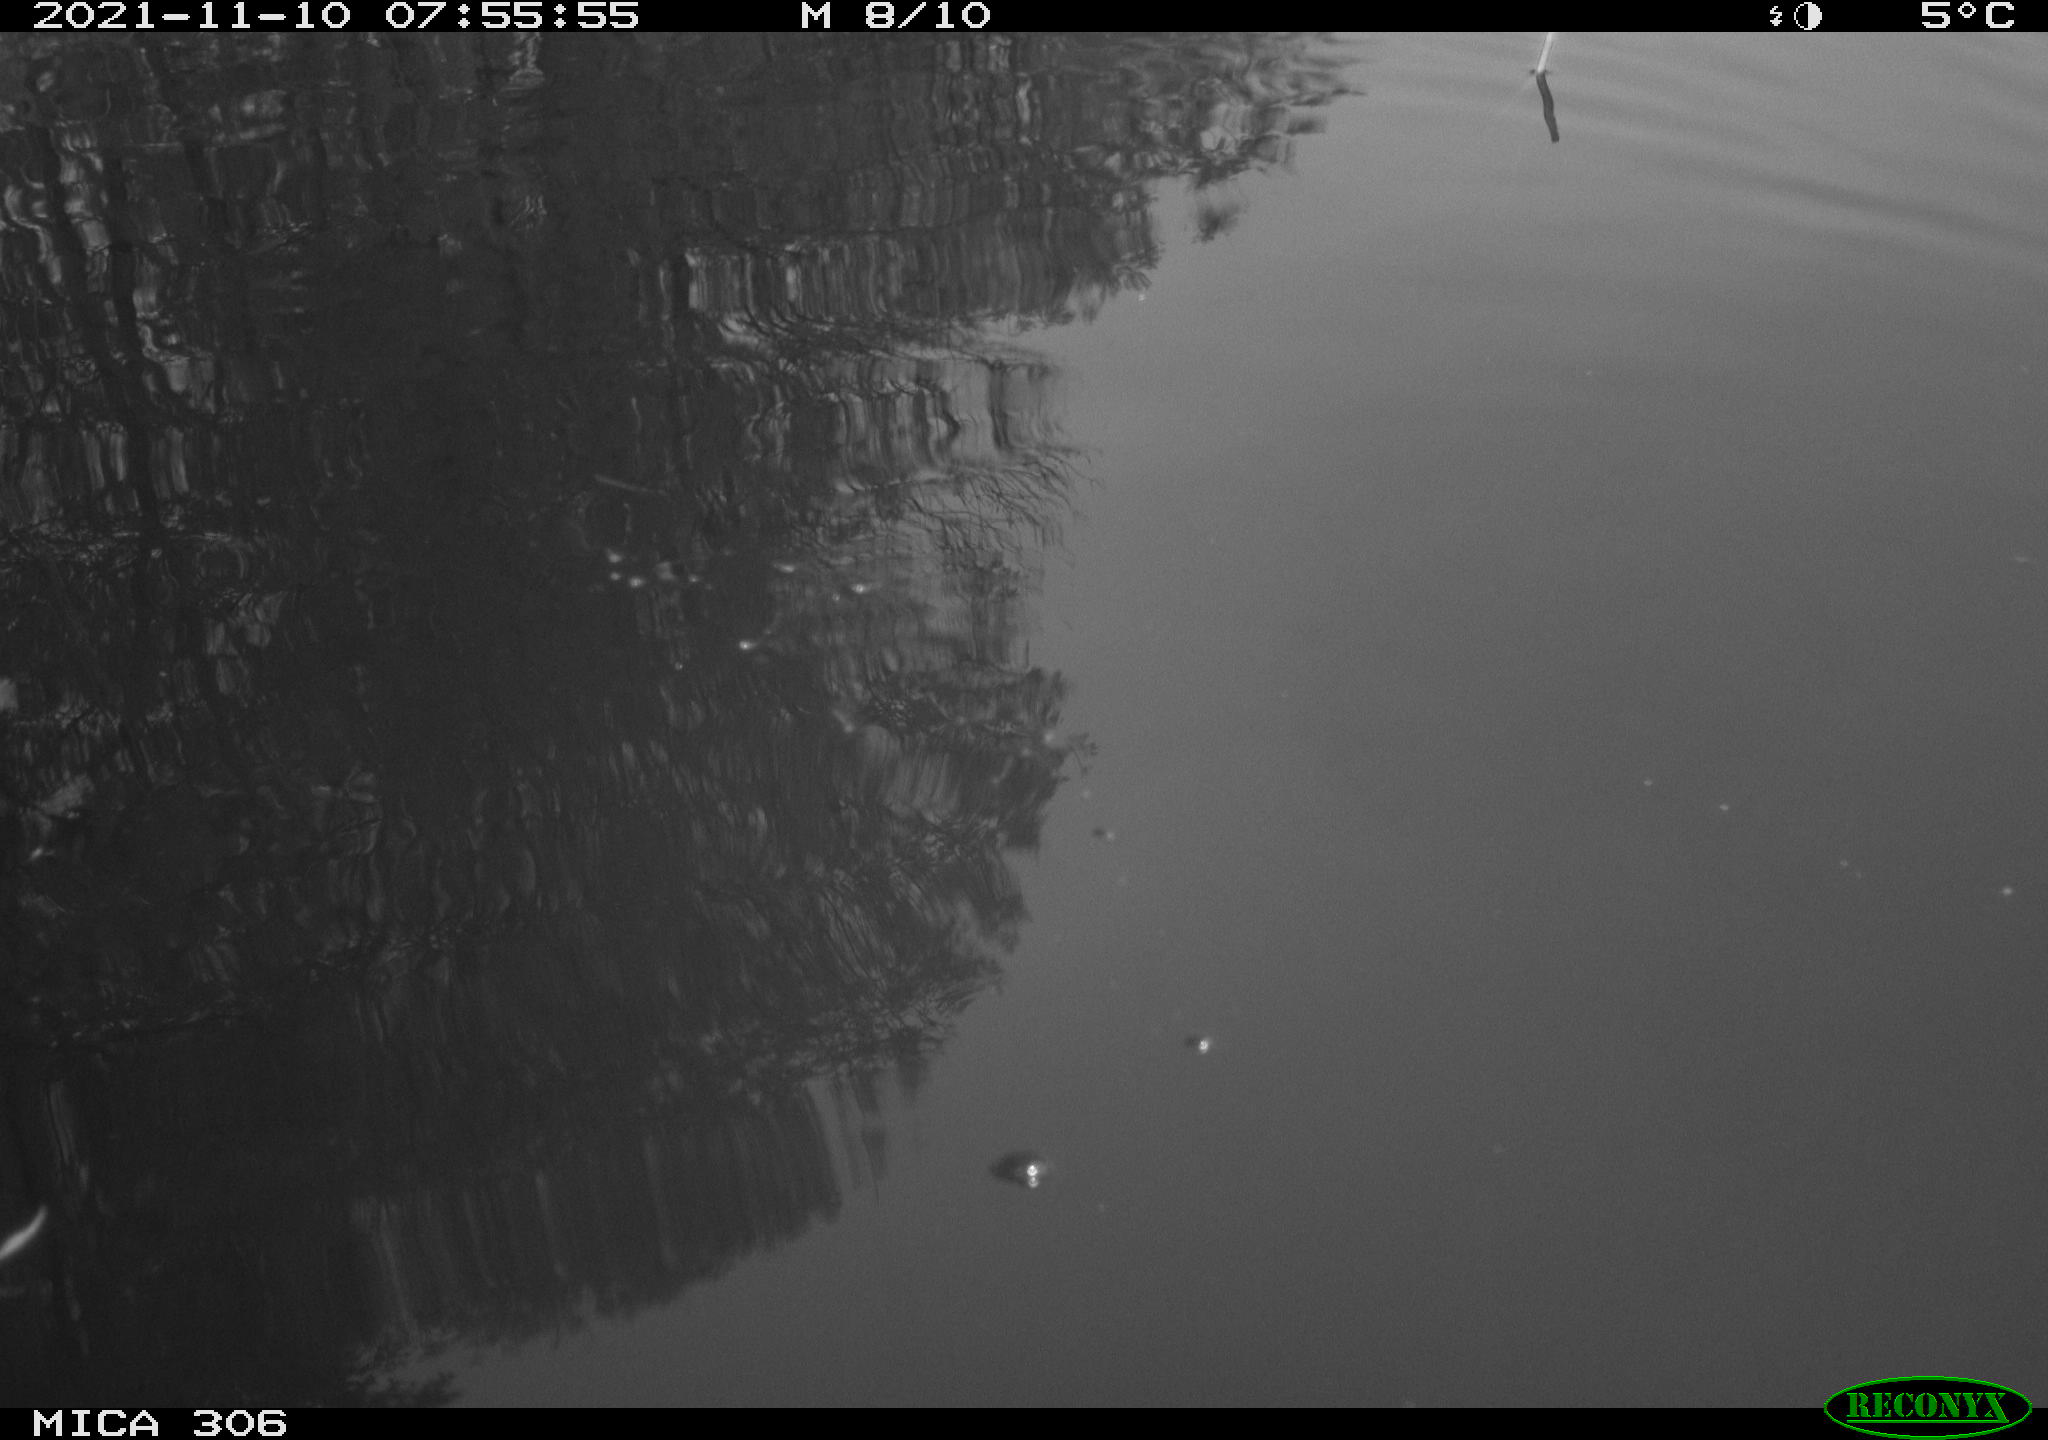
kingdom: Animalia
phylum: Chordata
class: Aves
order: Gruiformes
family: Rallidae
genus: Fulica
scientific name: Fulica atra
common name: Eurasian coot
